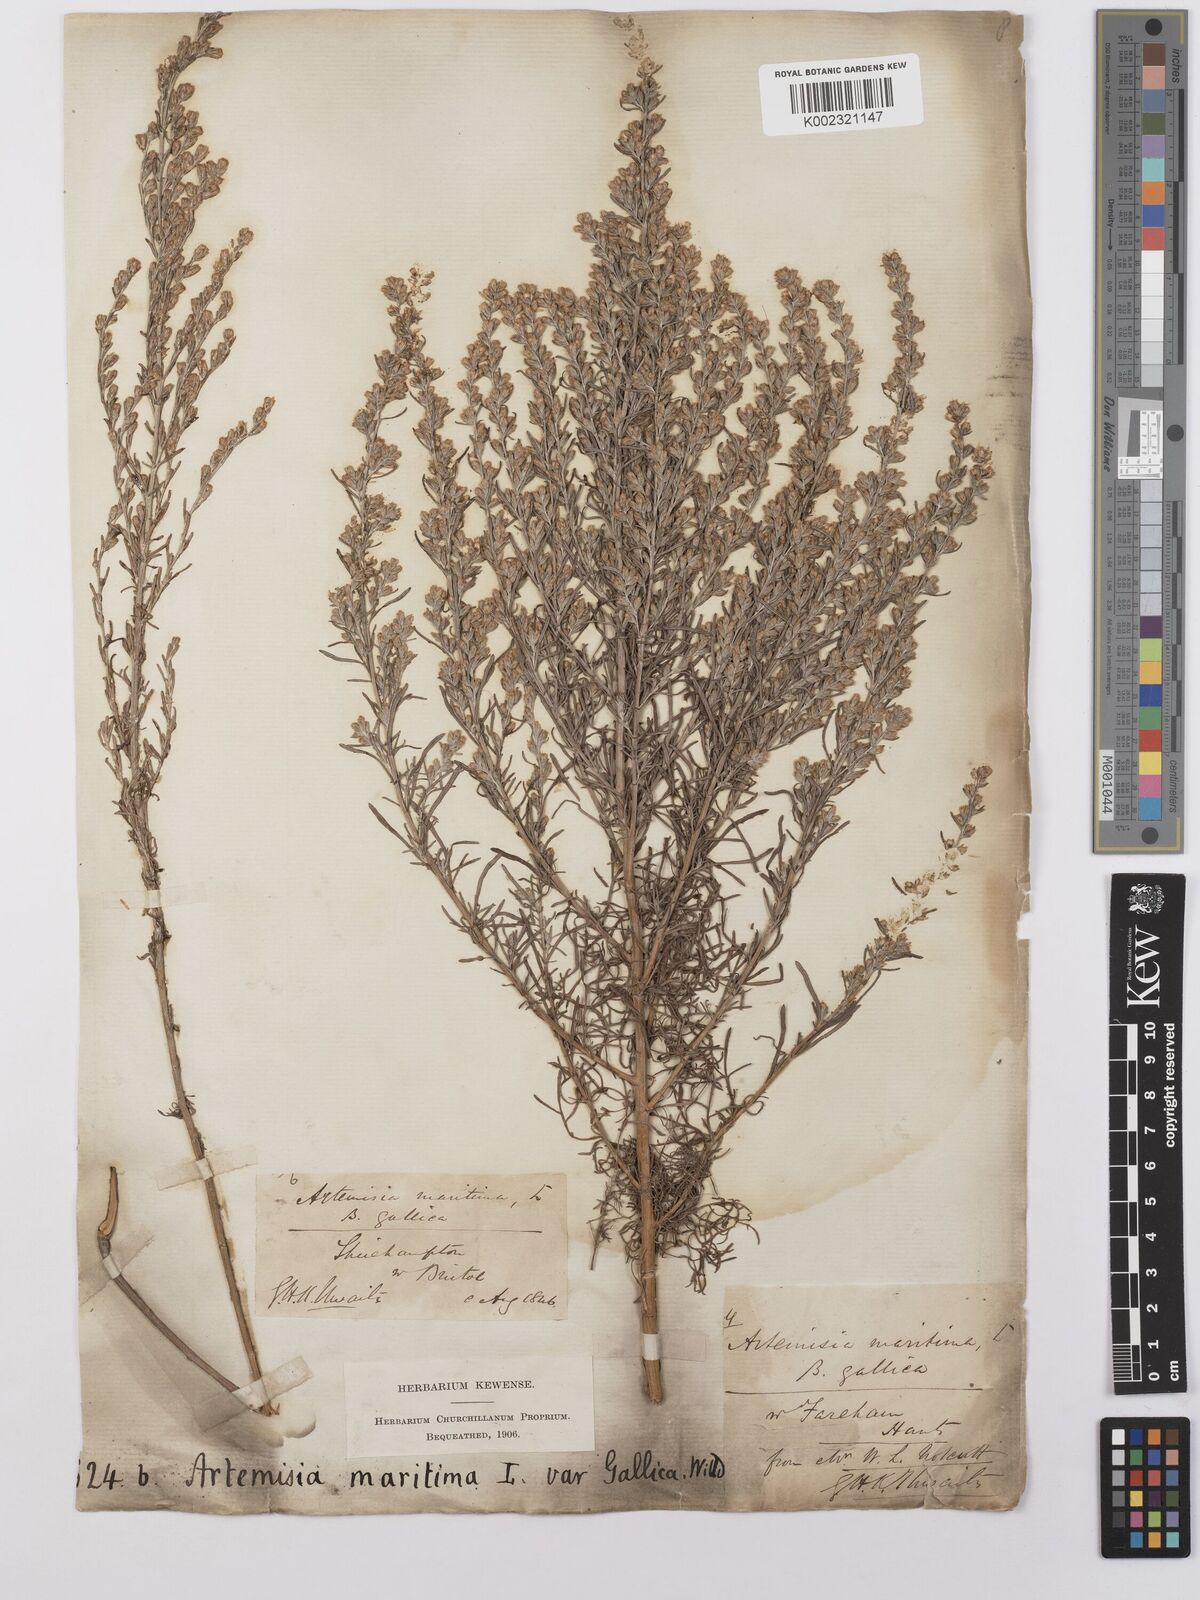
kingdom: Plantae
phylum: Tracheophyta
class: Magnoliopsida
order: Asterales
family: Asteraceae
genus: Artemisia
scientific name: Artemisia maritima
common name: Wormseed
